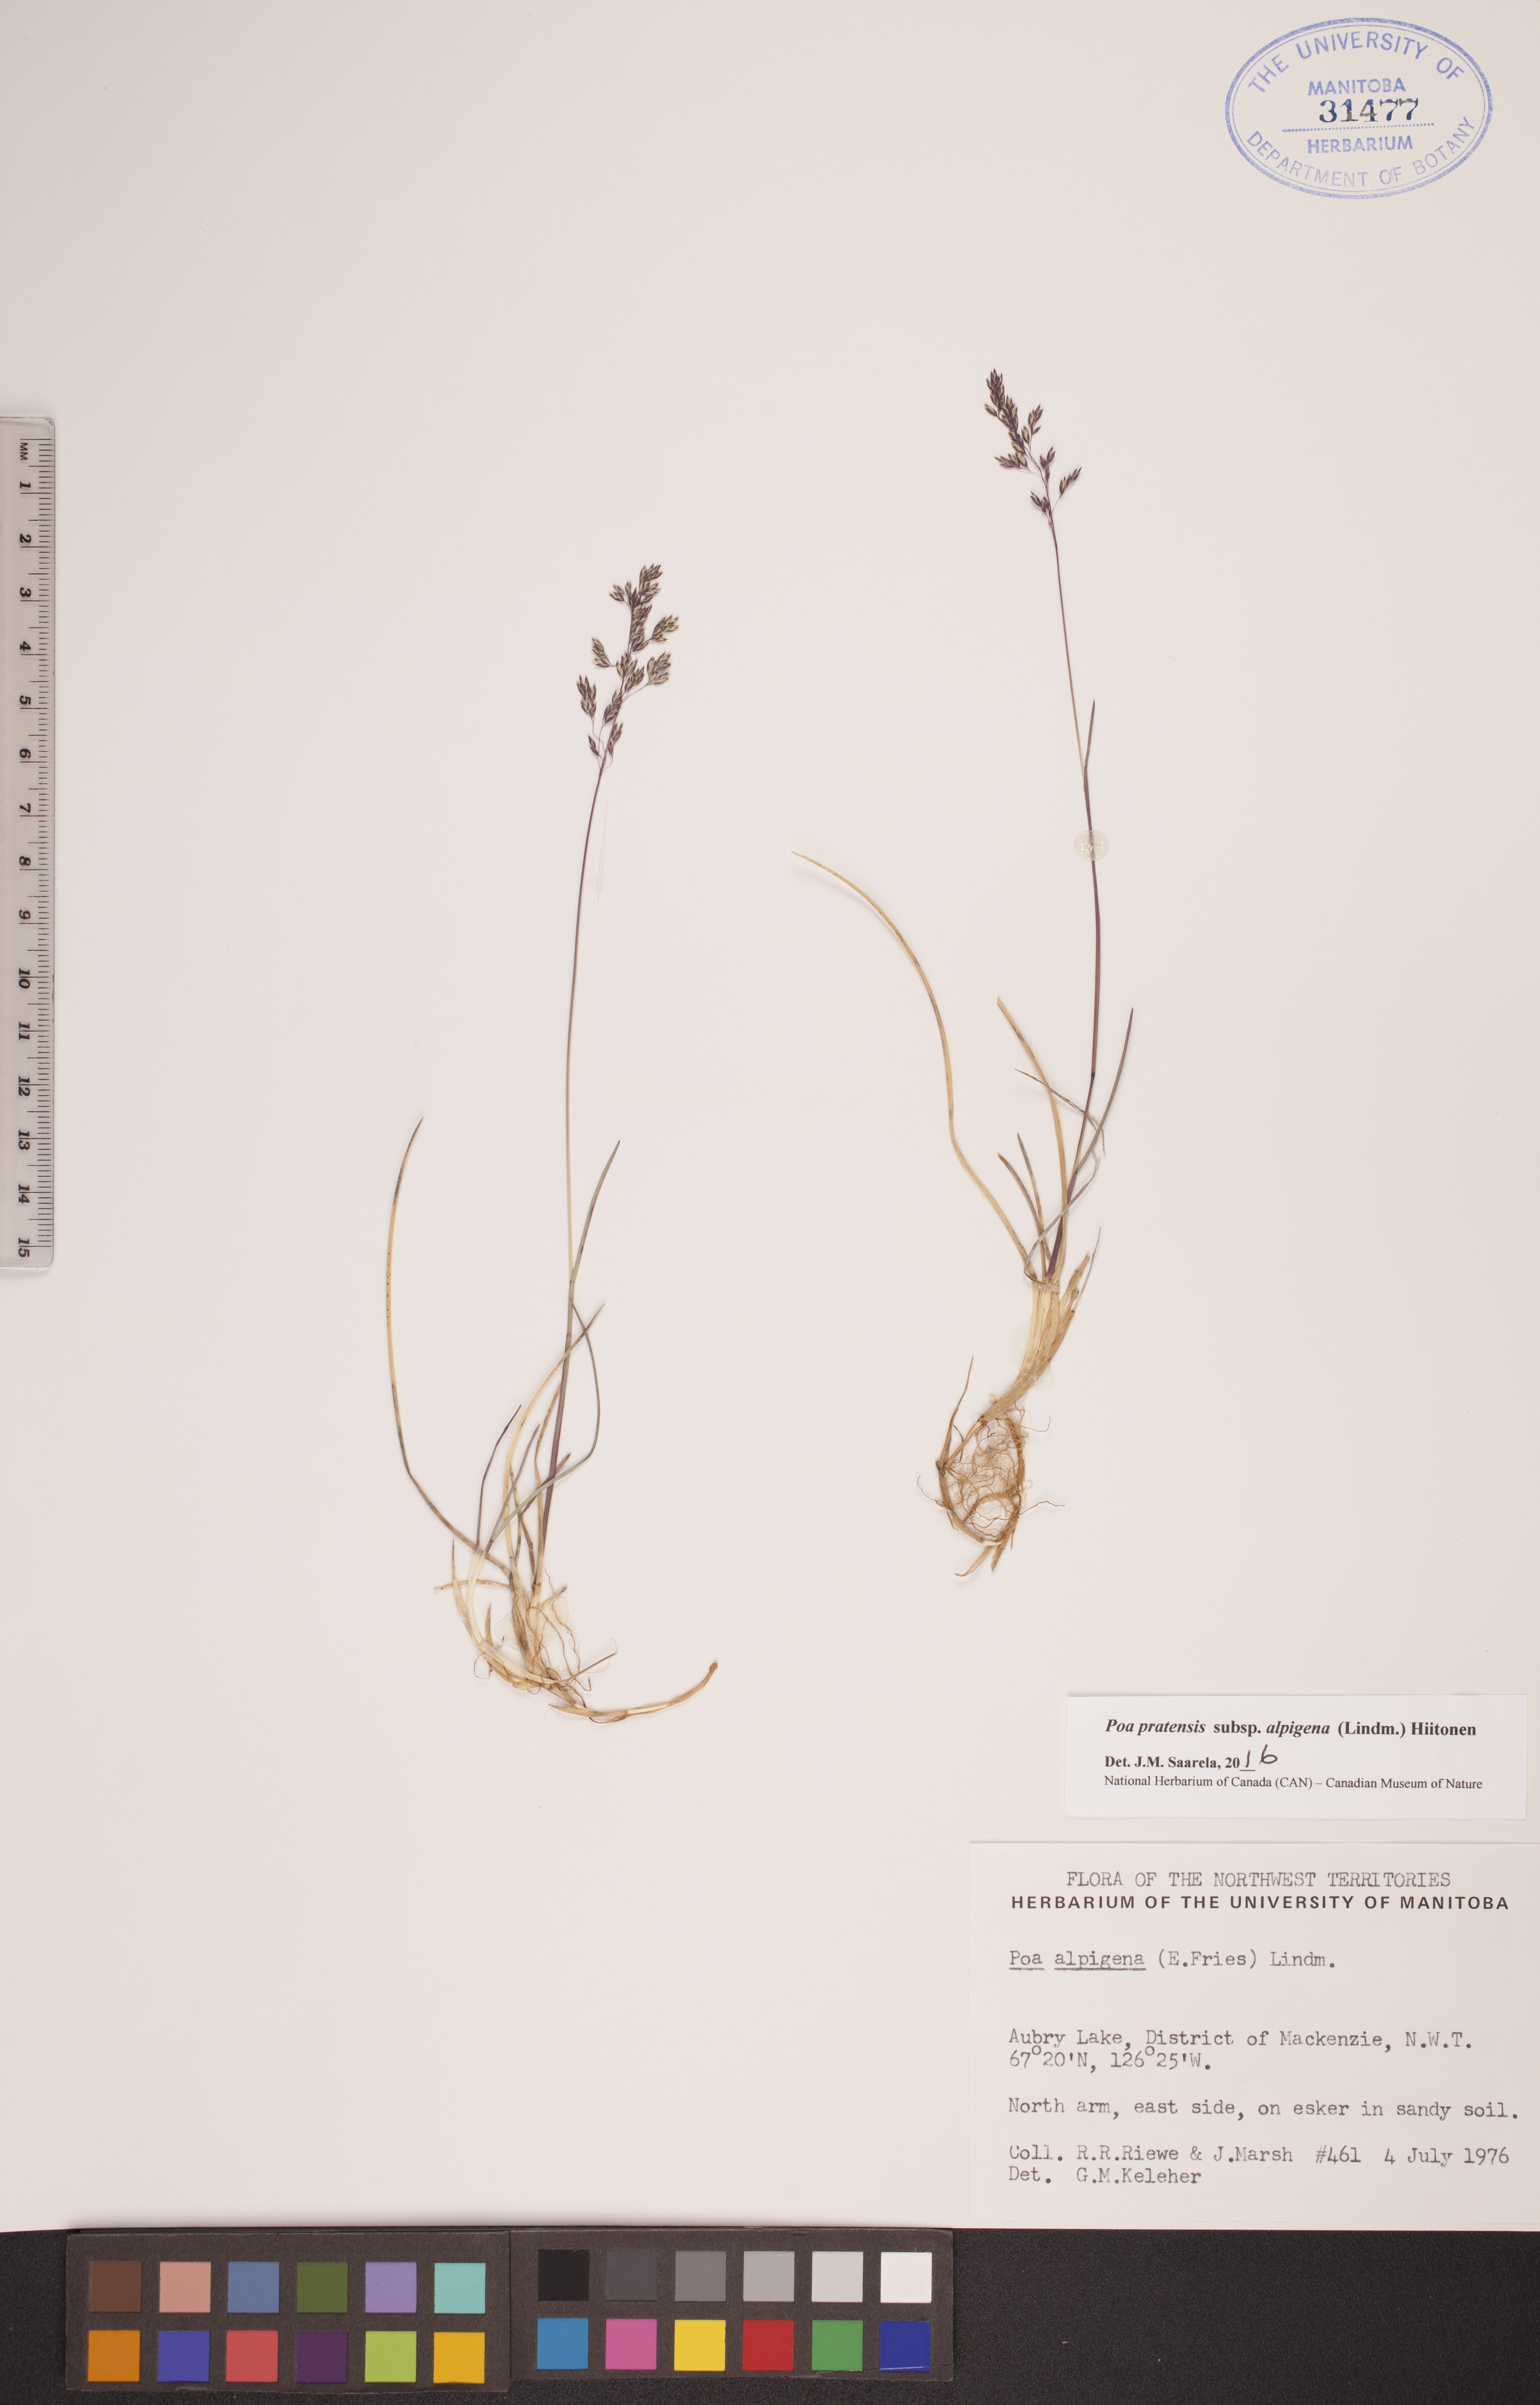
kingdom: Plantae
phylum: Tracheophyta
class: Liliopsida
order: Poales
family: Poaceae
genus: Poa
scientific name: Poa alpigena
